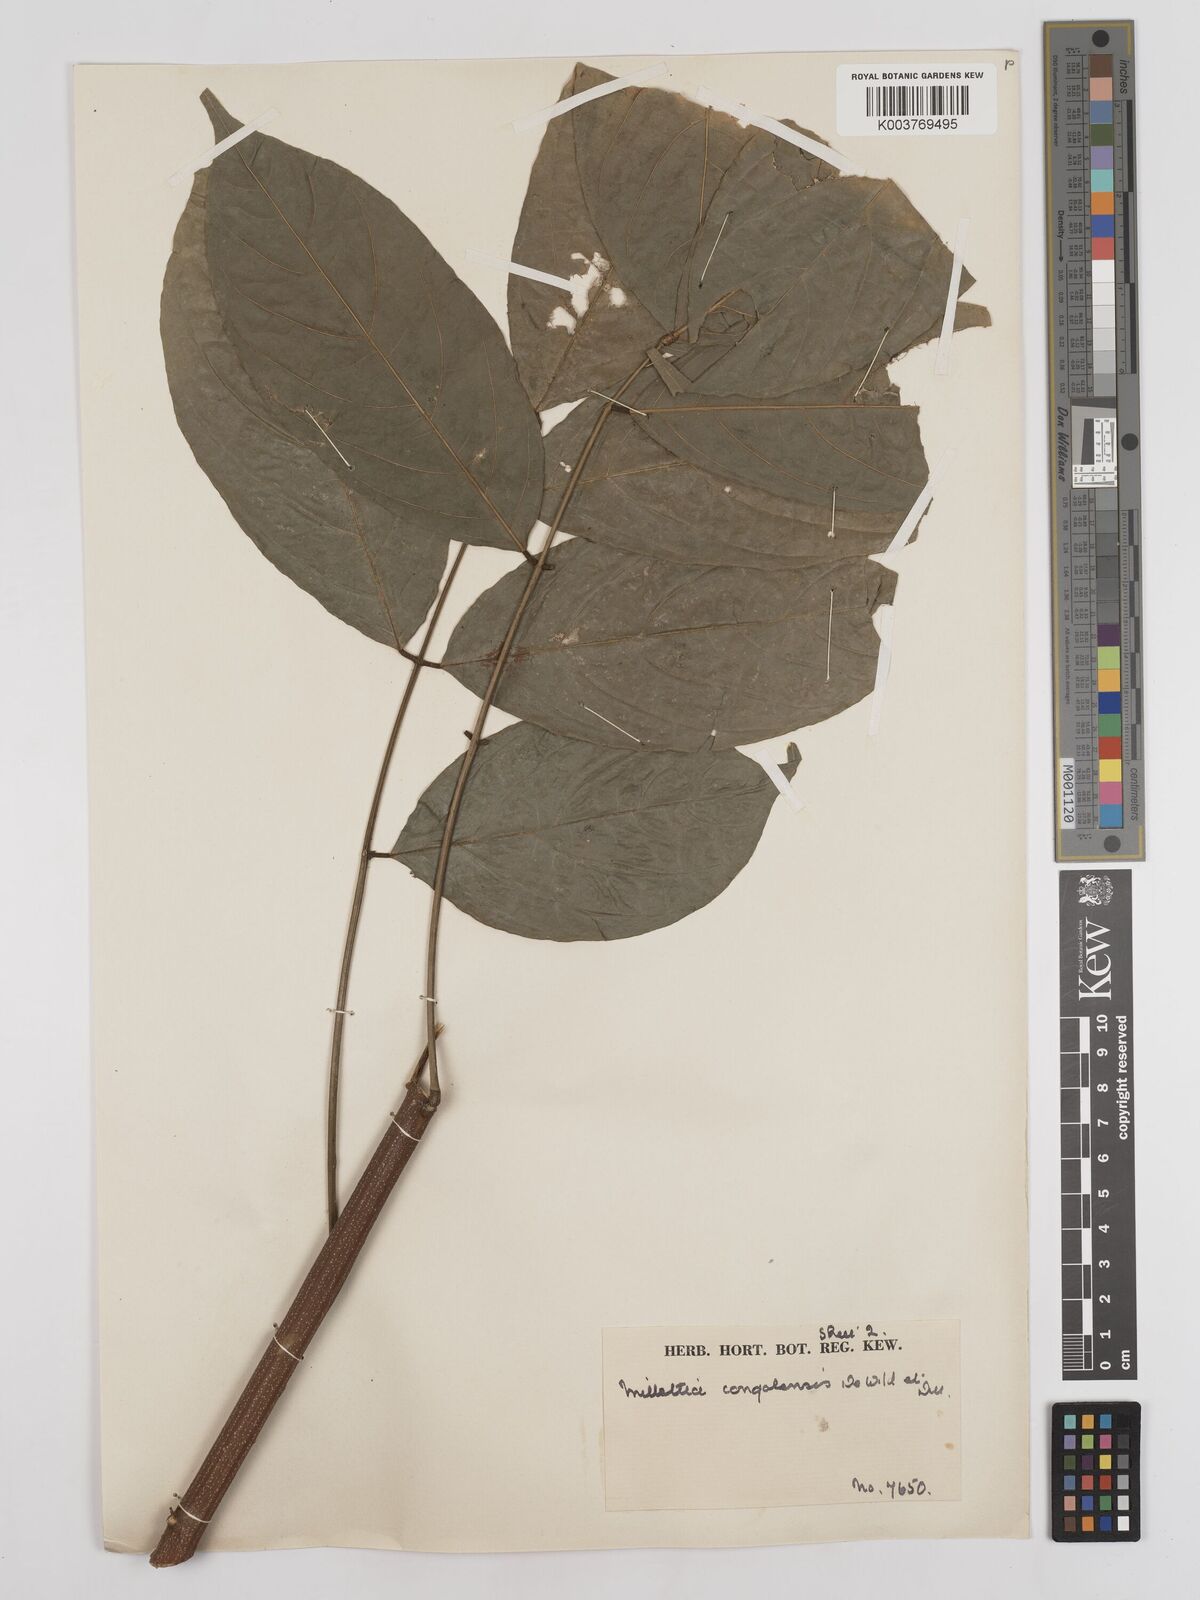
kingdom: Plantae
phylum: Tracheophyta
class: Magnoliopsida
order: Fabales
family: Fabaceae
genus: Millettia
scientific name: Millettia macroura
